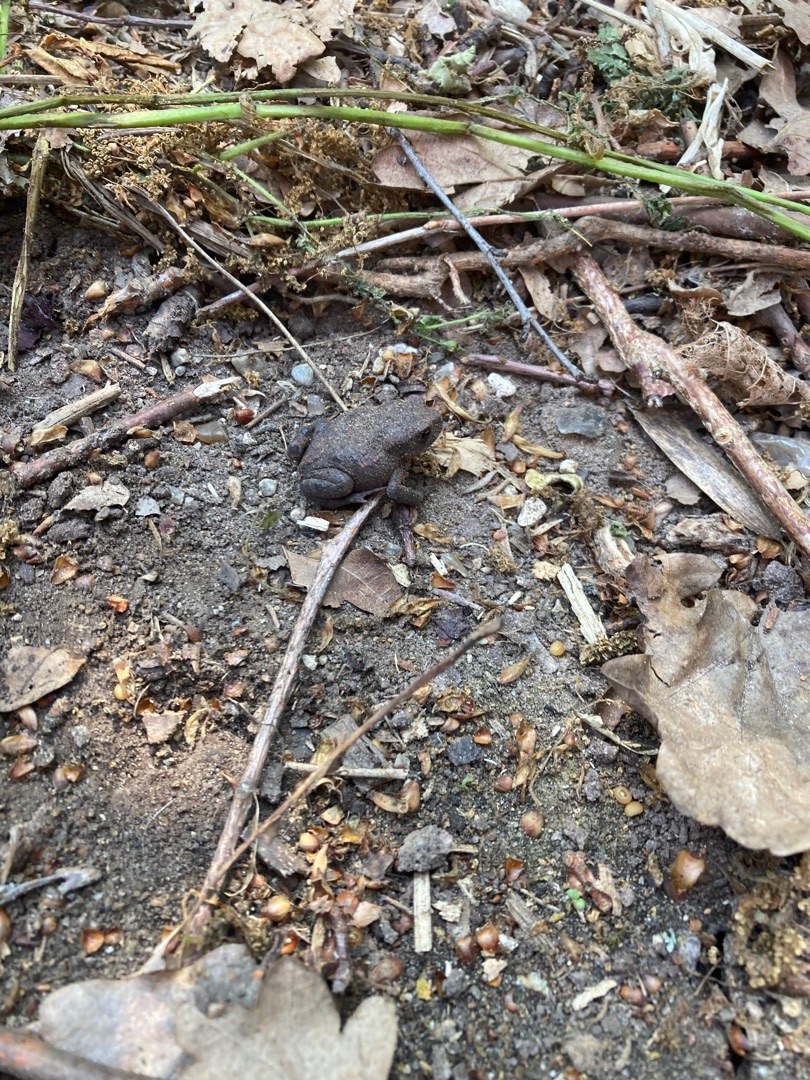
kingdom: Animalia
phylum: Chordata
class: Amphibia
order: Anura
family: Bufonidae
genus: Bufo
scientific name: Bufo bufo
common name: Skrubtudse
